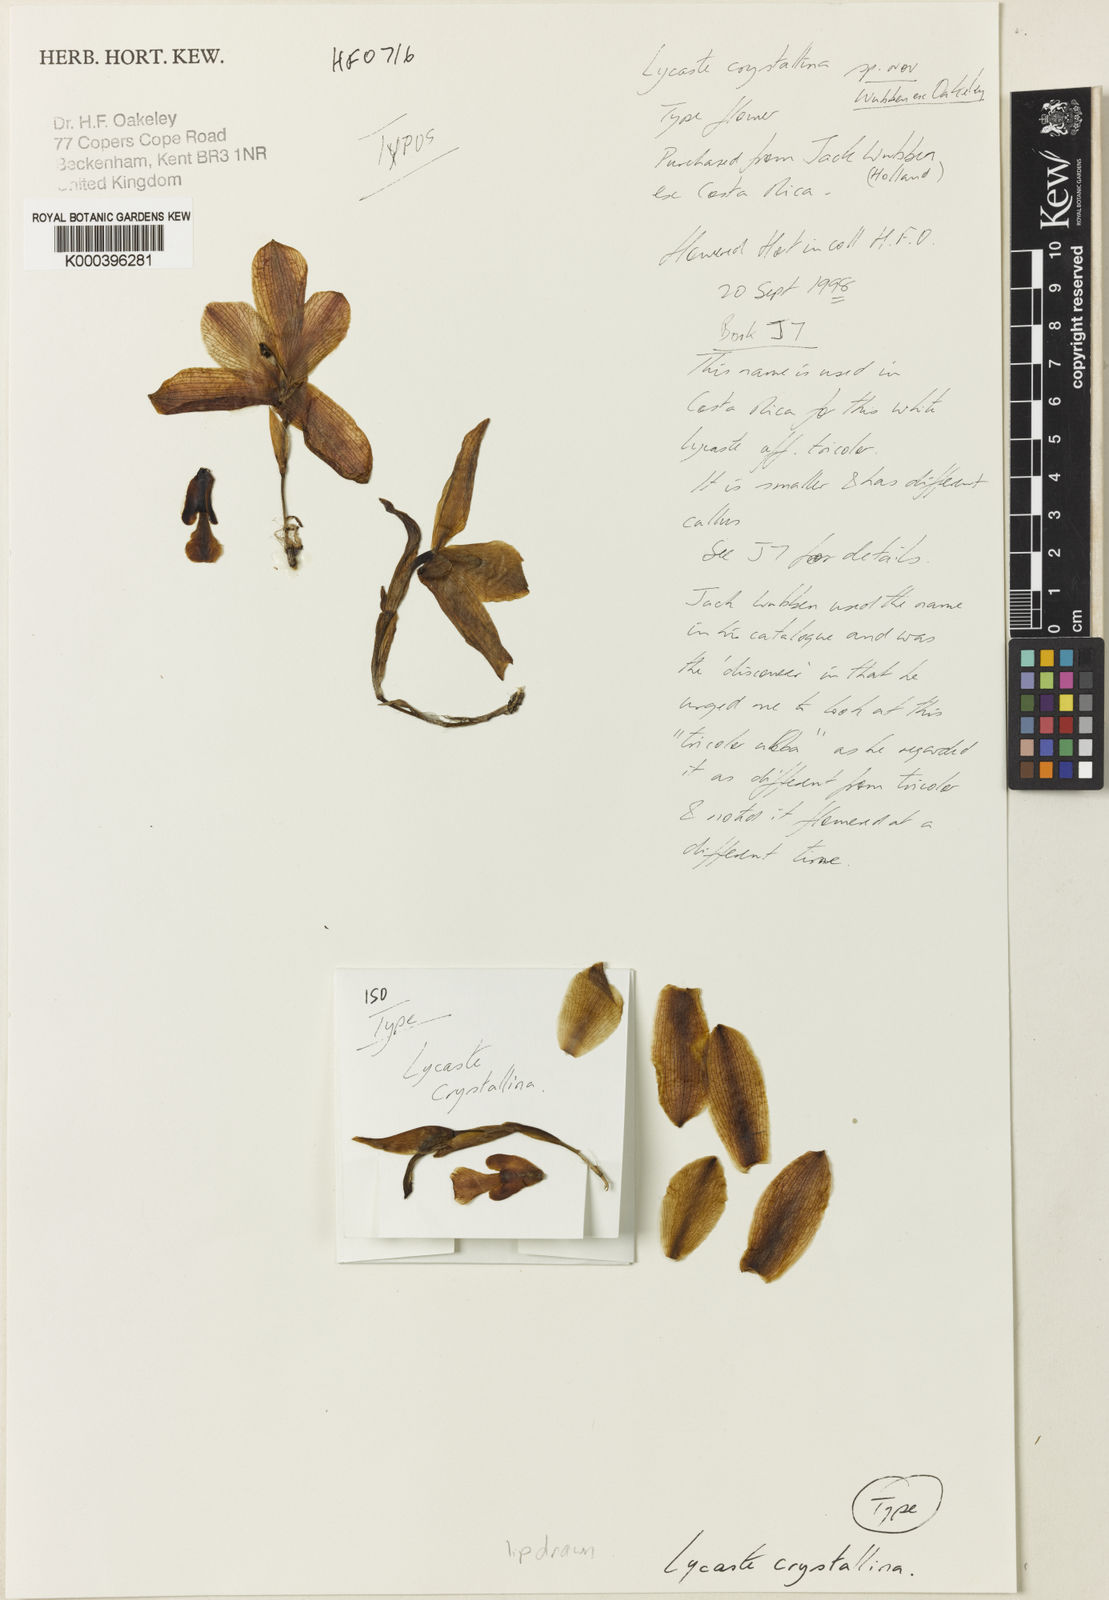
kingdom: Plantae
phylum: Tracheophyta
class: Liliopsida
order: Asparagales
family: Orchidaceae
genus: Lycaste
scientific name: Lycaste bruncana
